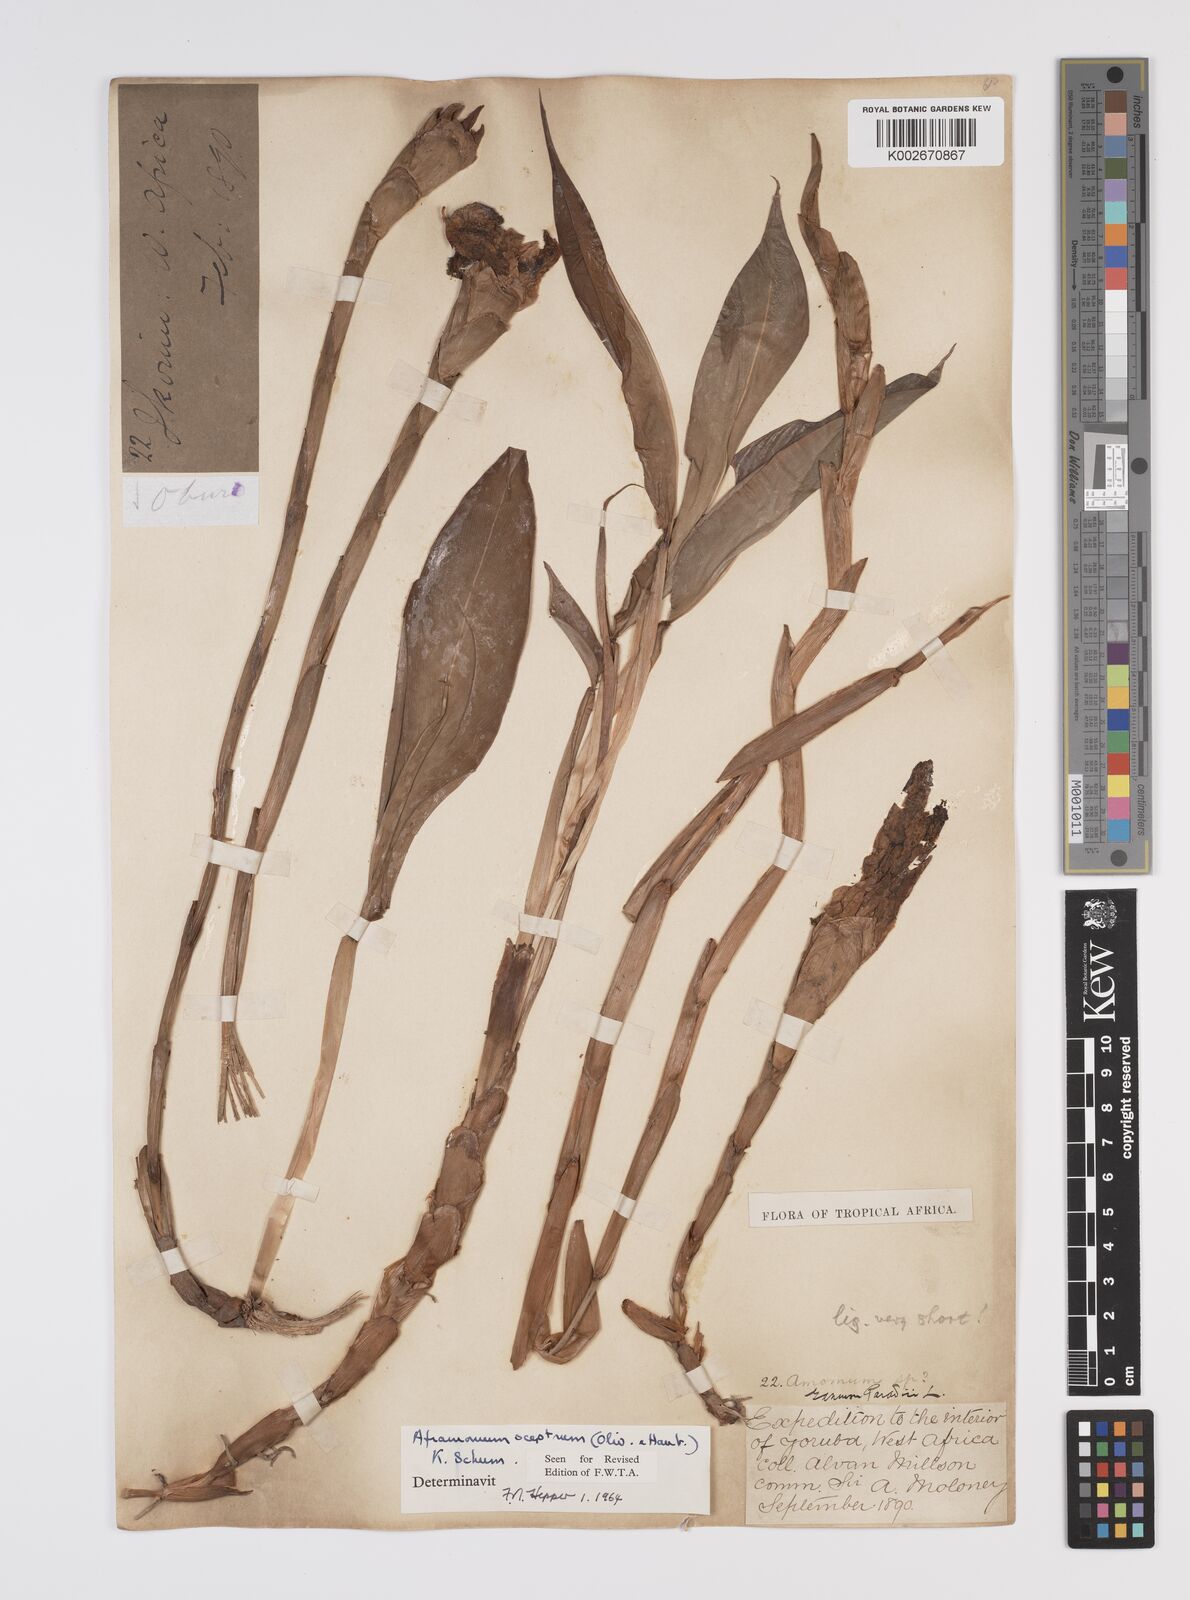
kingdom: Plantae
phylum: Tracheophyta
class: Liliopsida
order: Zingiberales
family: Zingiberaceae
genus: Aframomum
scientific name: Aframomum cereum
